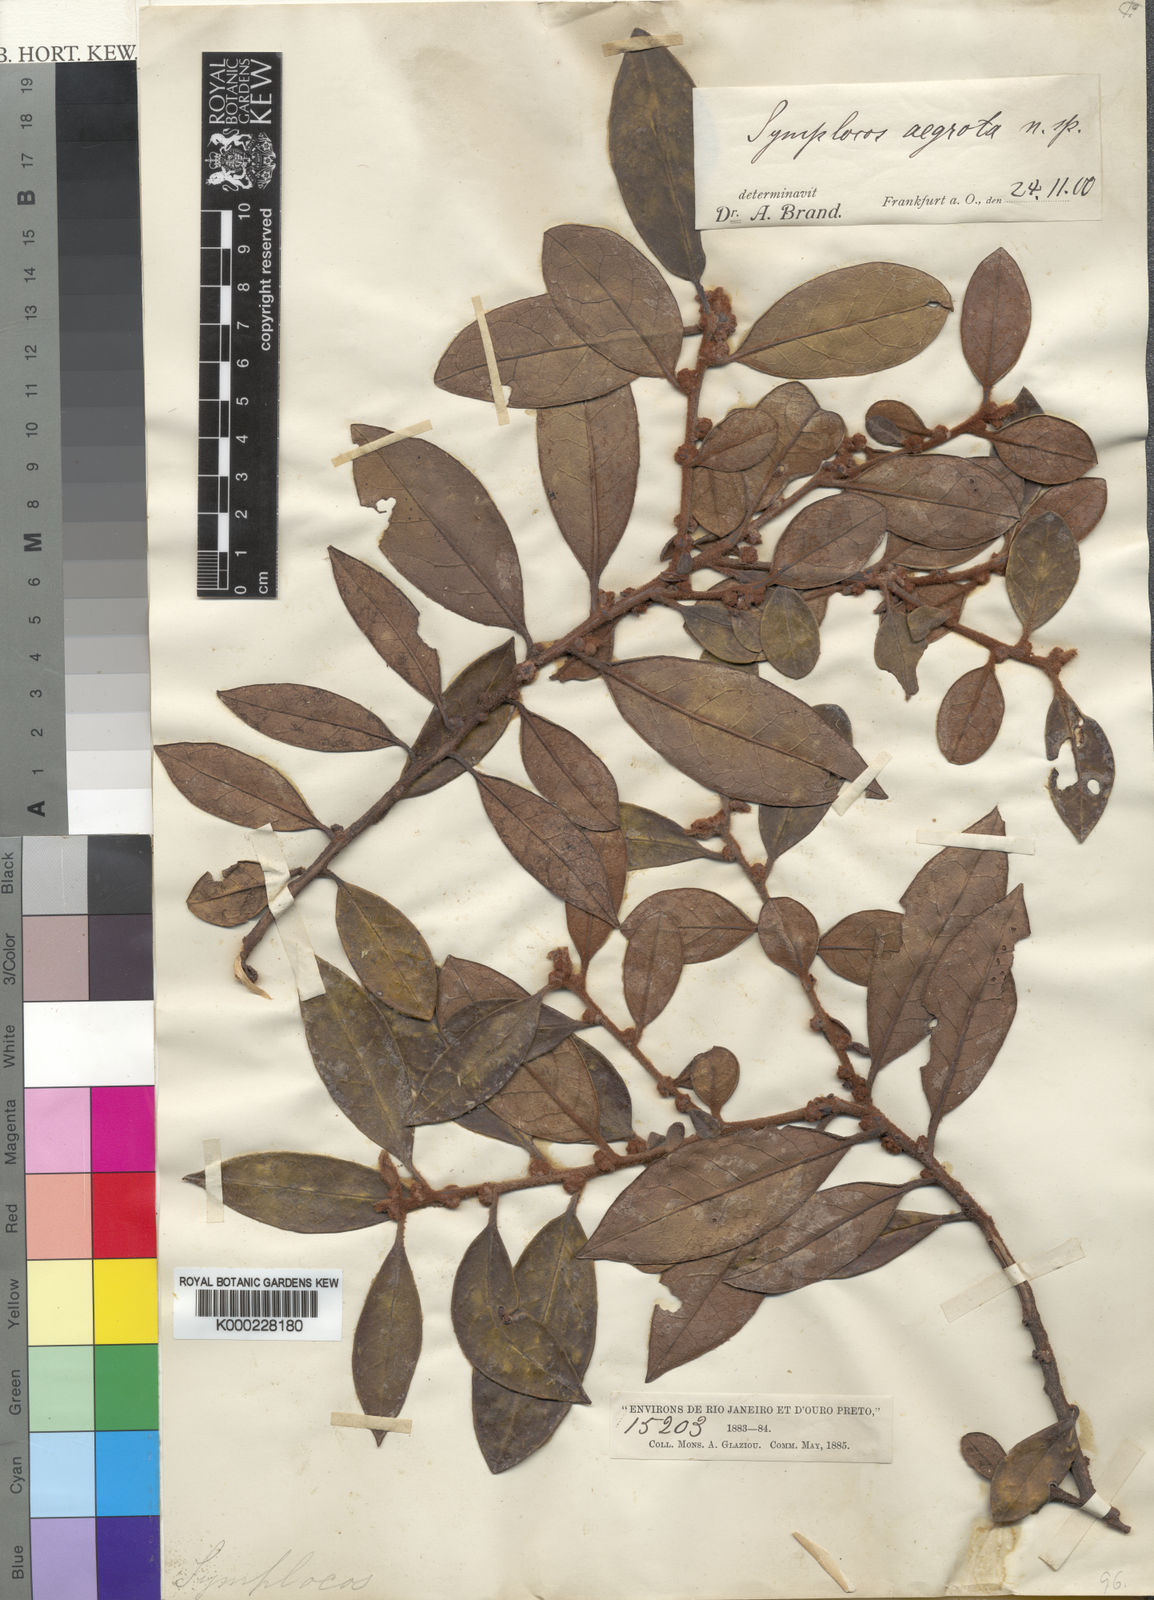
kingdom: Plantae
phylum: Tracheophyta
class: Magnoliopsida
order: Ericales
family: Symplocaceae
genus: Symplocos
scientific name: Symplocos falcata
